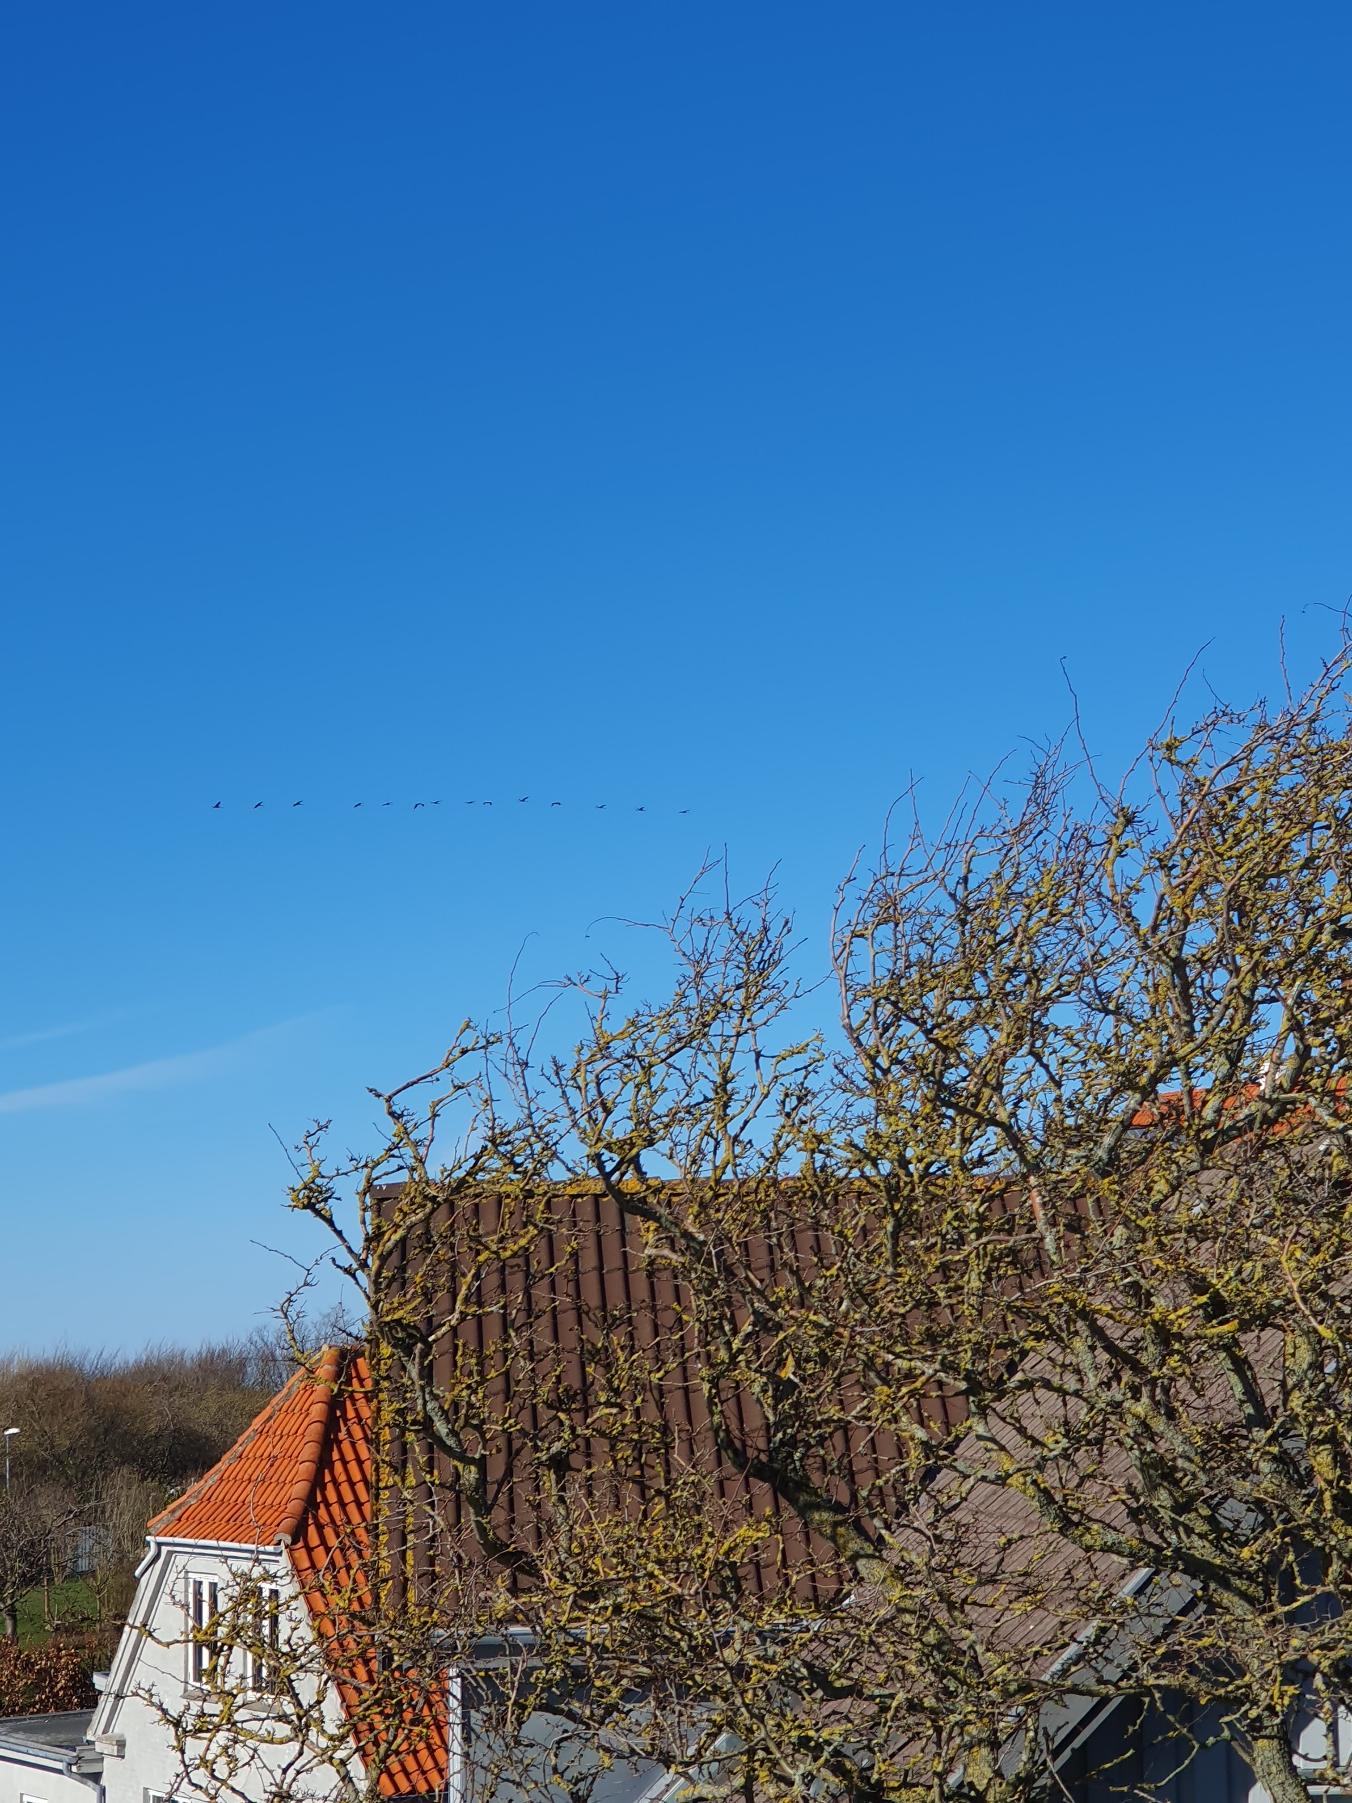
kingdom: Animalia
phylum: Chordata
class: Aves
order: Gruiformes
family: Gruidae
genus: Grus
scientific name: Grus grus
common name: Trane
